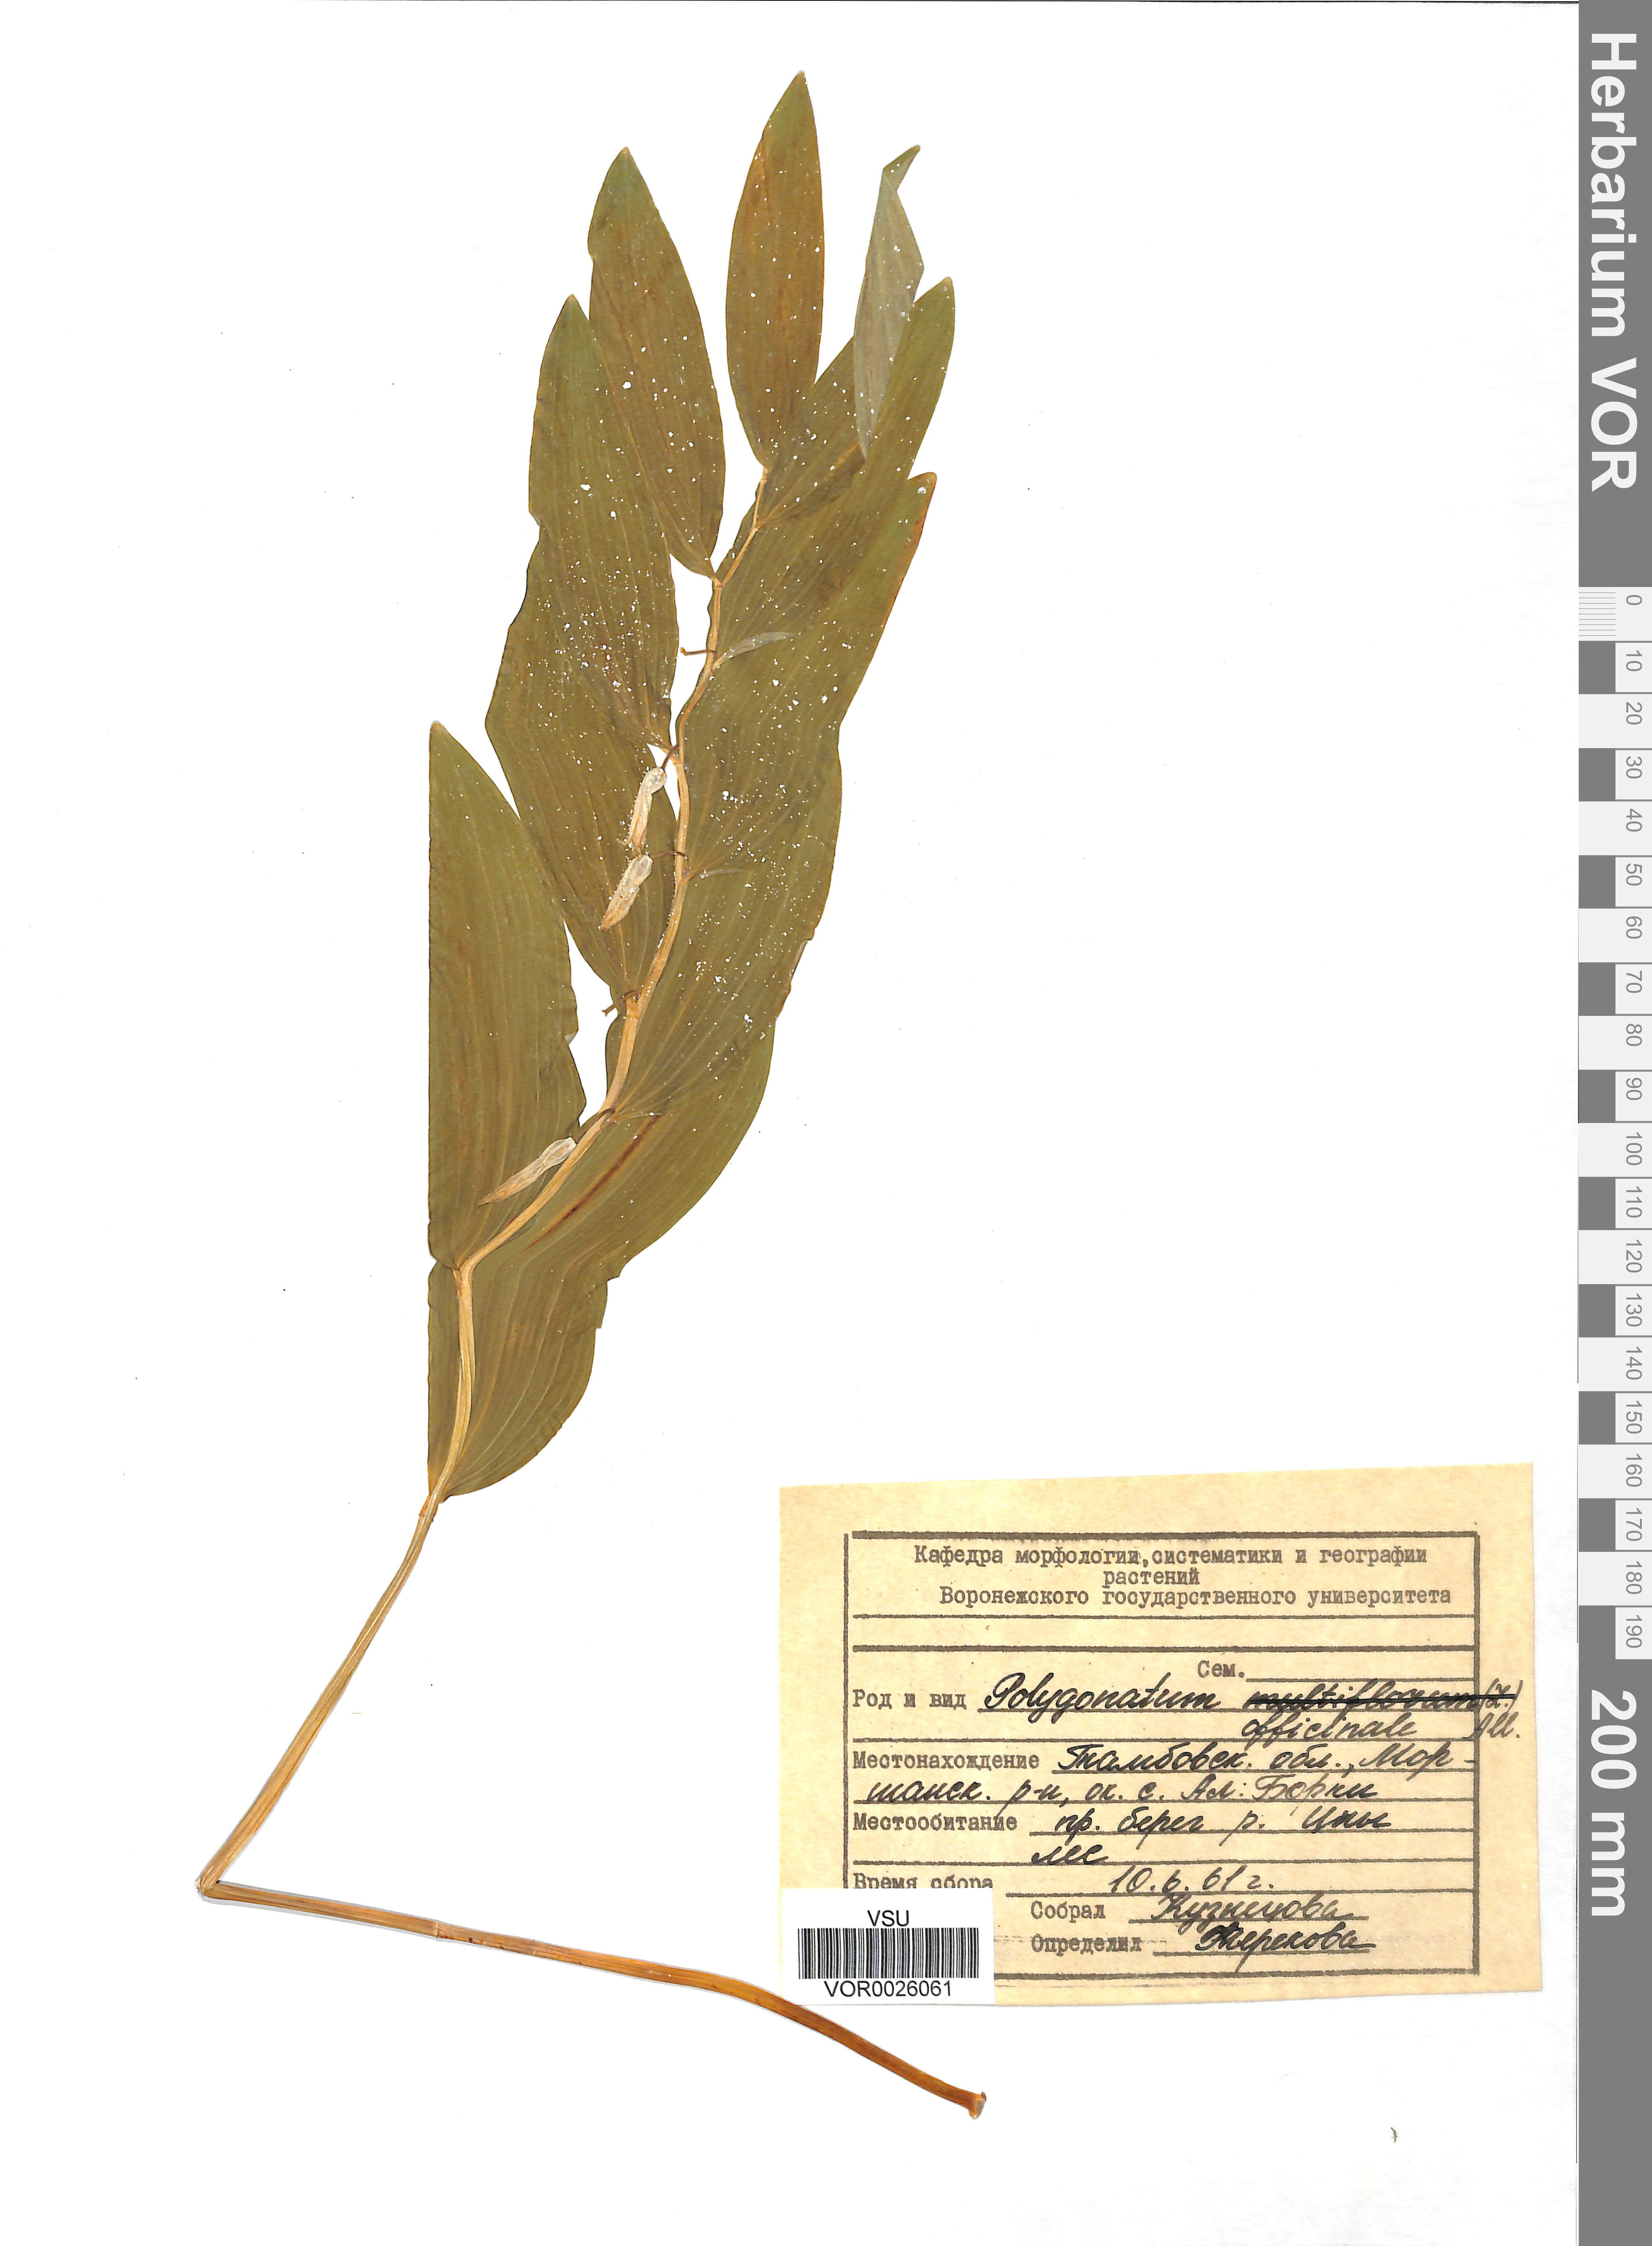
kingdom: Plantae
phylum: Tracheophyta
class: Liliopsida
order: Asparagales
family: Asparagaceae
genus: Polygonatum
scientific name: Polygonatum odoratum
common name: Angular solomon's-seal
